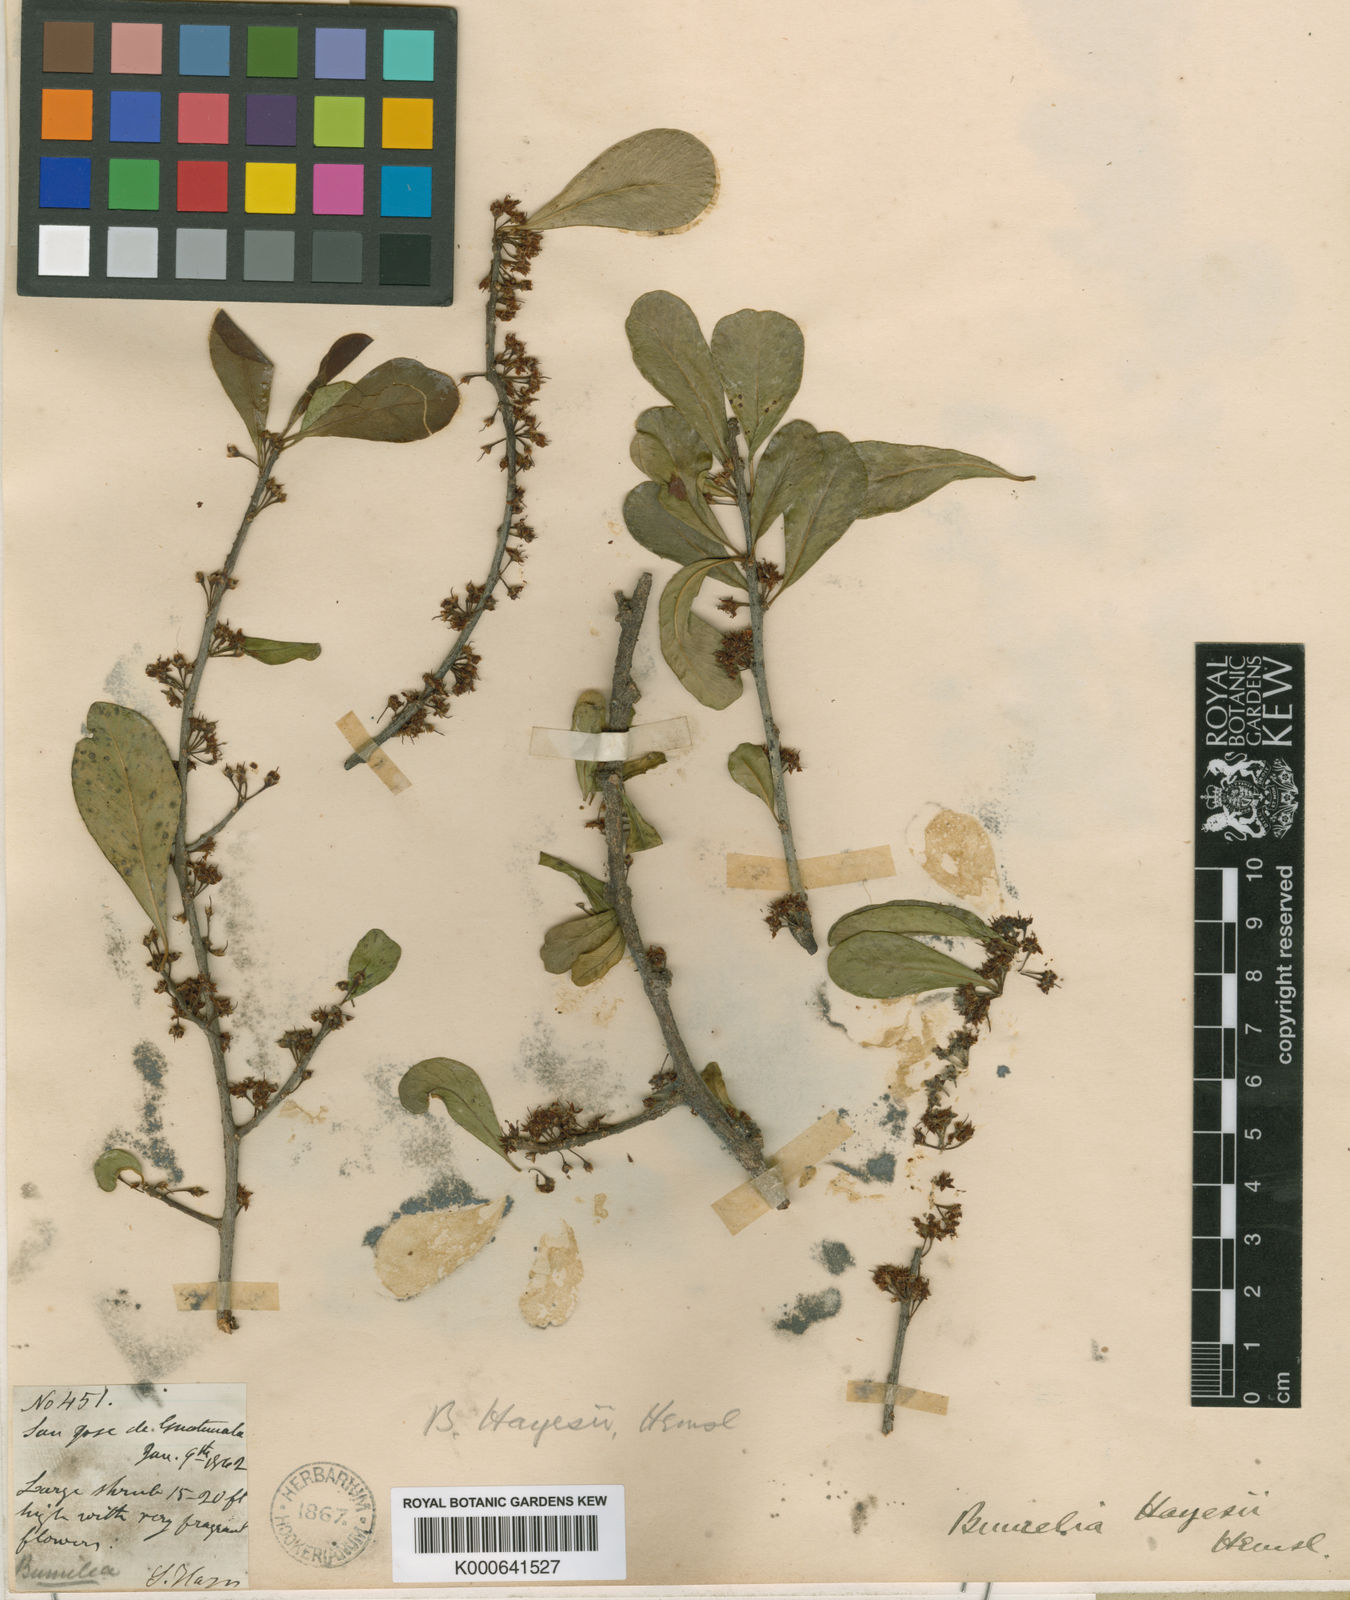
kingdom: Plantae
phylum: Tracheophyta
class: Magnoliopsida
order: Ericales
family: Sapotaceae
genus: Sideroxylon
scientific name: Sideroxylon americanum
